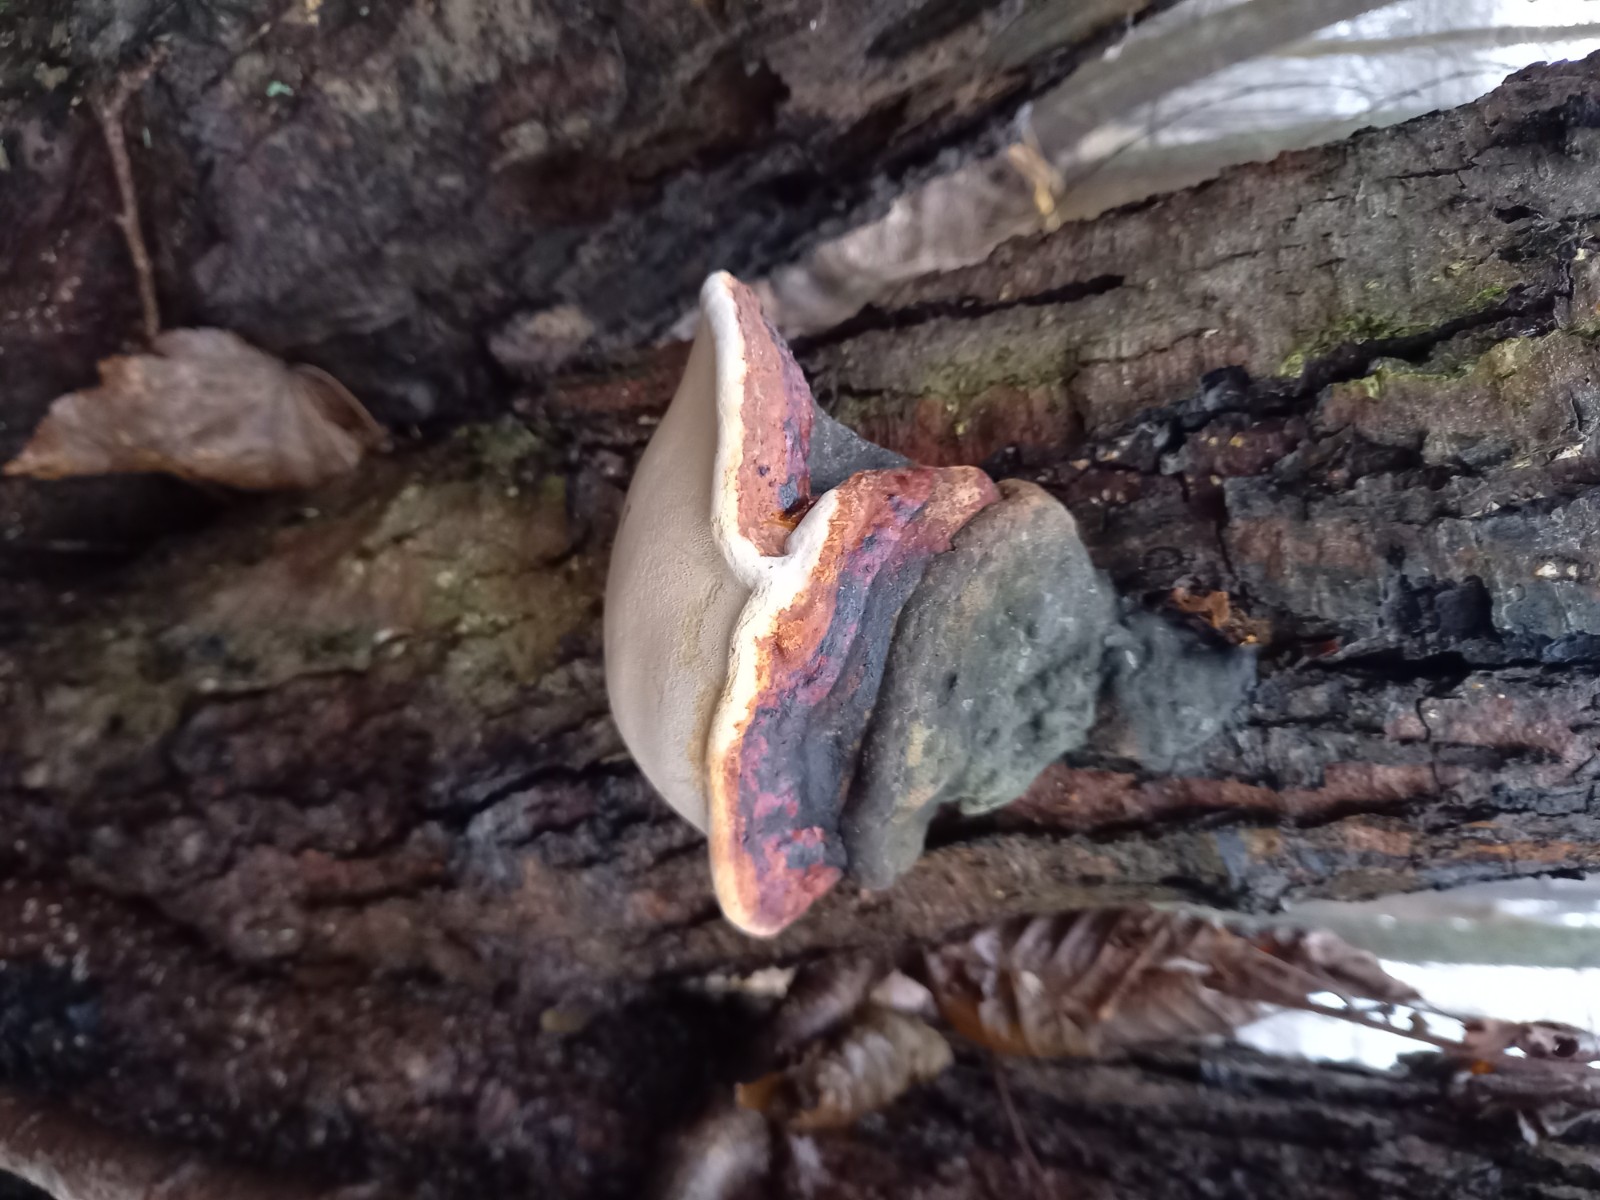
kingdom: Fungi
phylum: Basidiomycota
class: Agaricomycetes
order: Polyporales
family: Fomitopsidaceae
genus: Fomitopsis
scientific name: Fomitopsis pinicola
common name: randbæltet hovporesvamp
